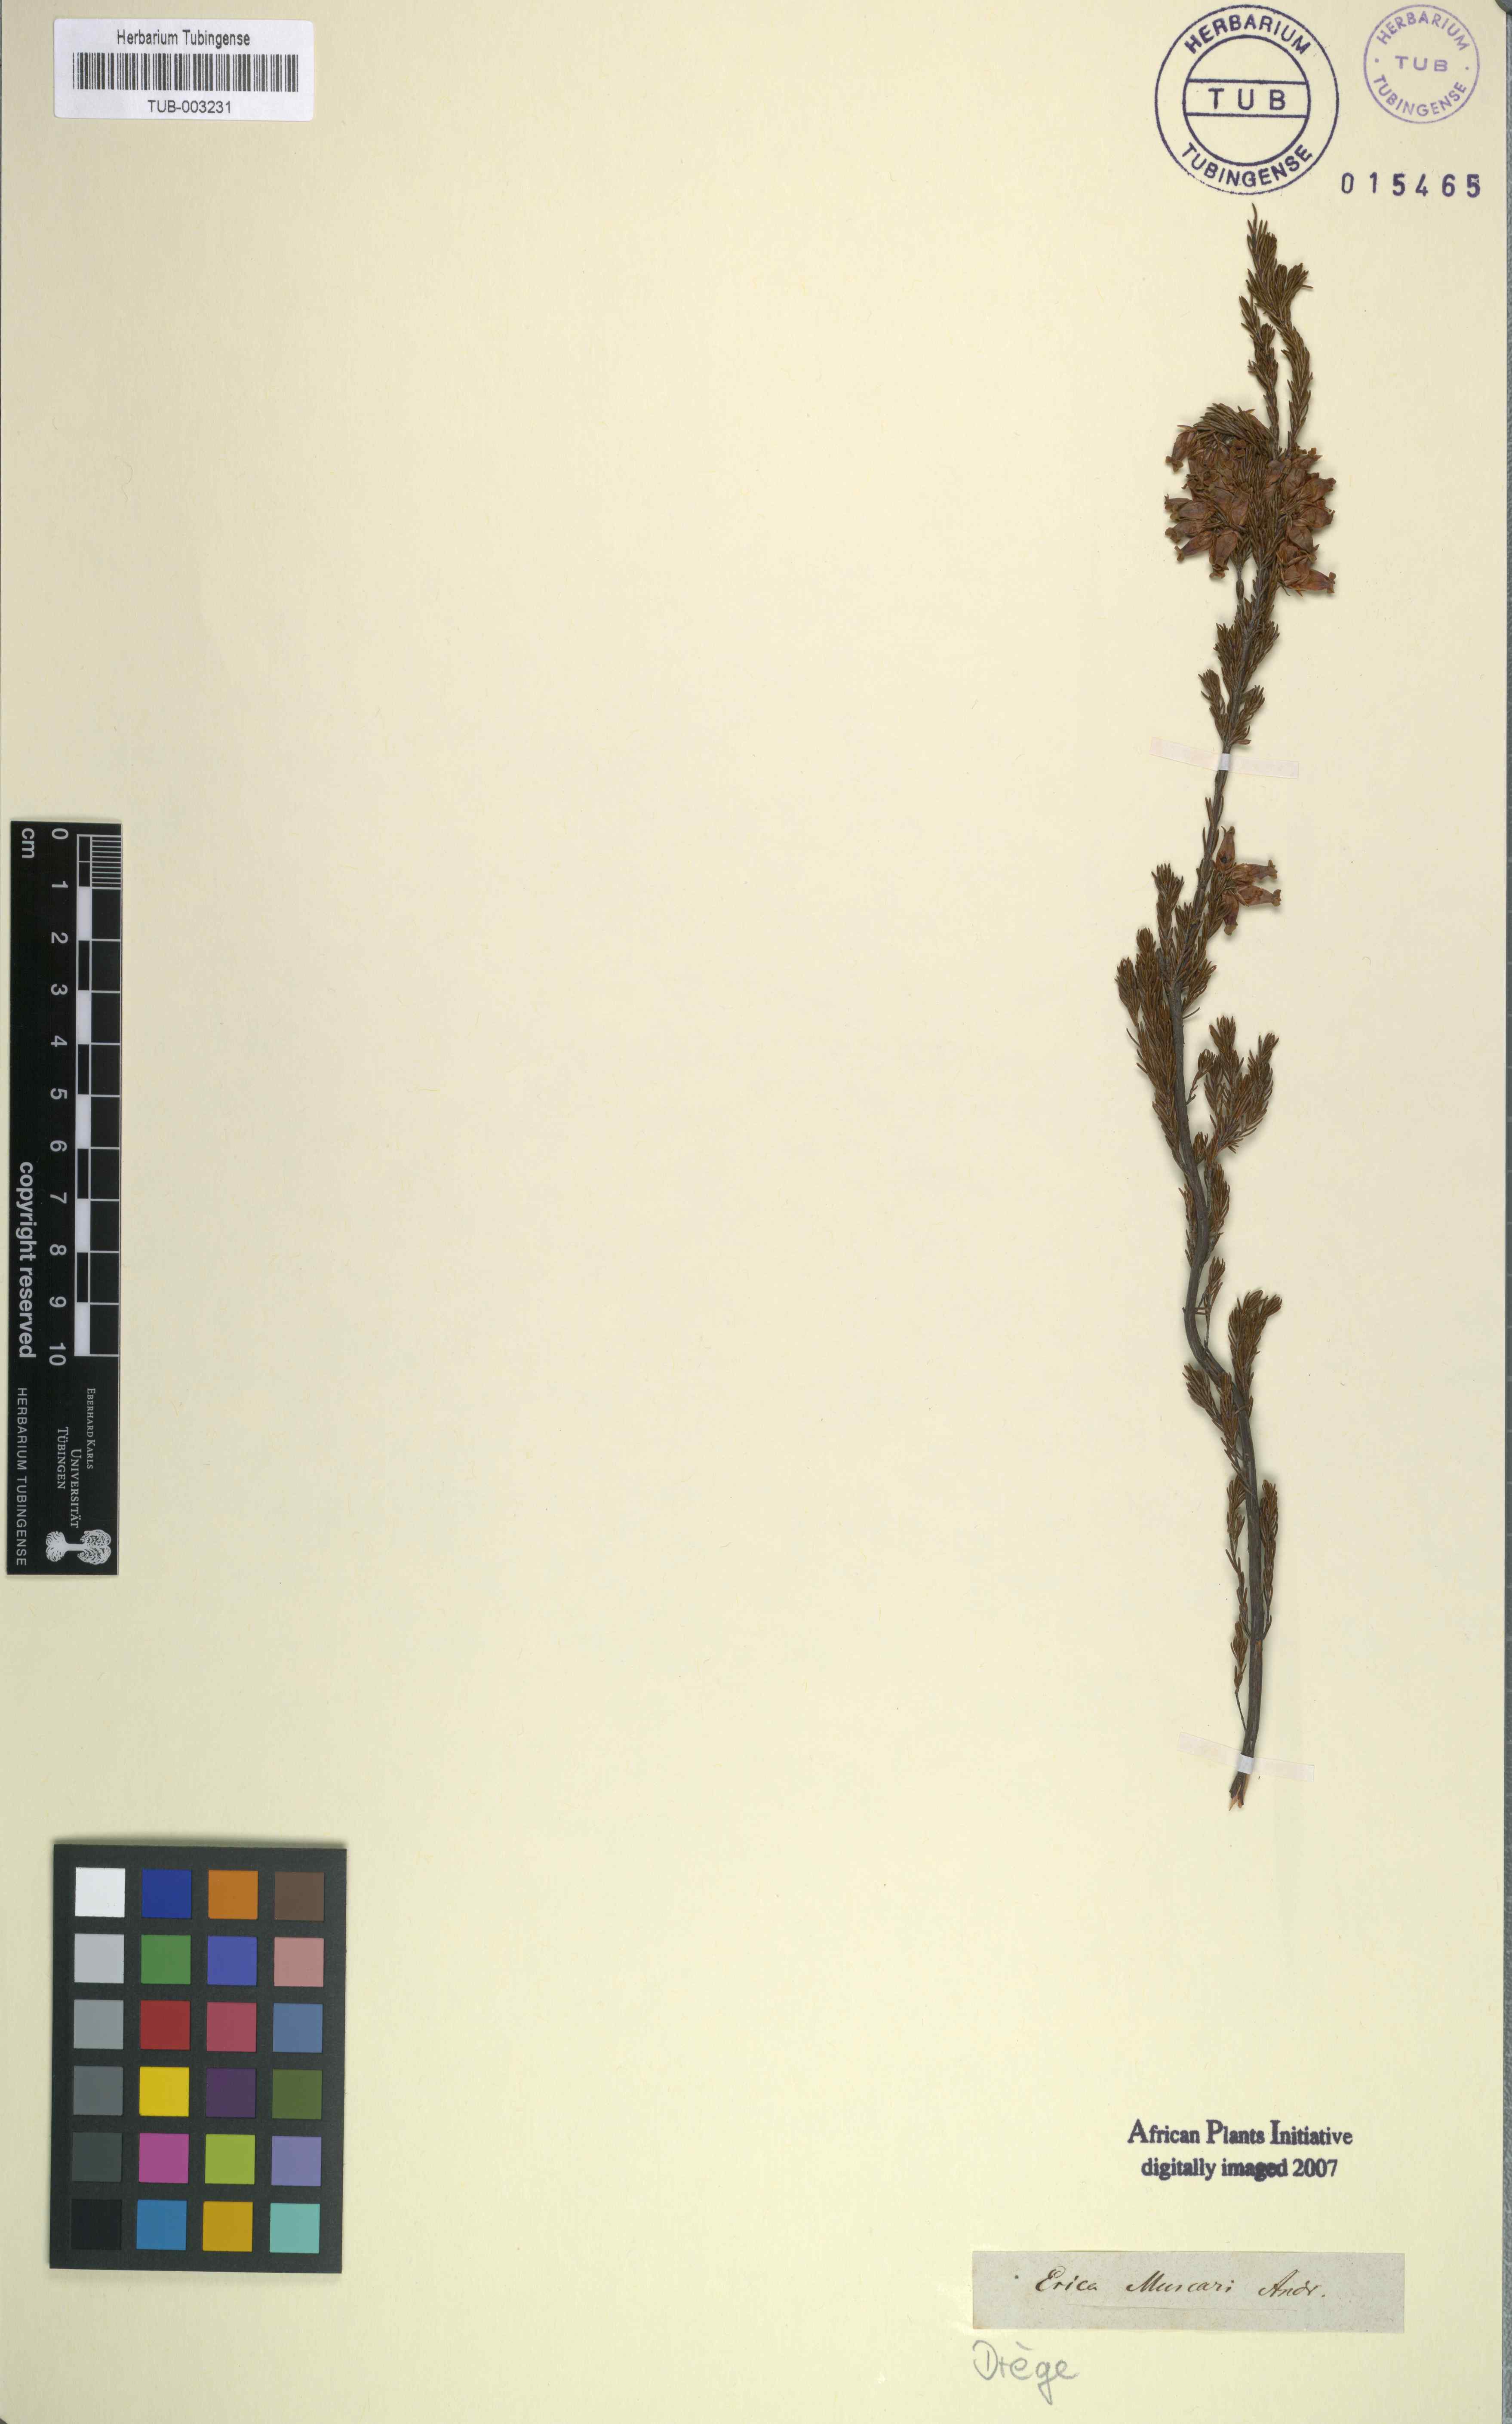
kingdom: Plantae
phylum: Tracheophyta
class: Magnoliopsida
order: Ericales
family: Ericaceae
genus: Erica
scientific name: Erica daphniflora
